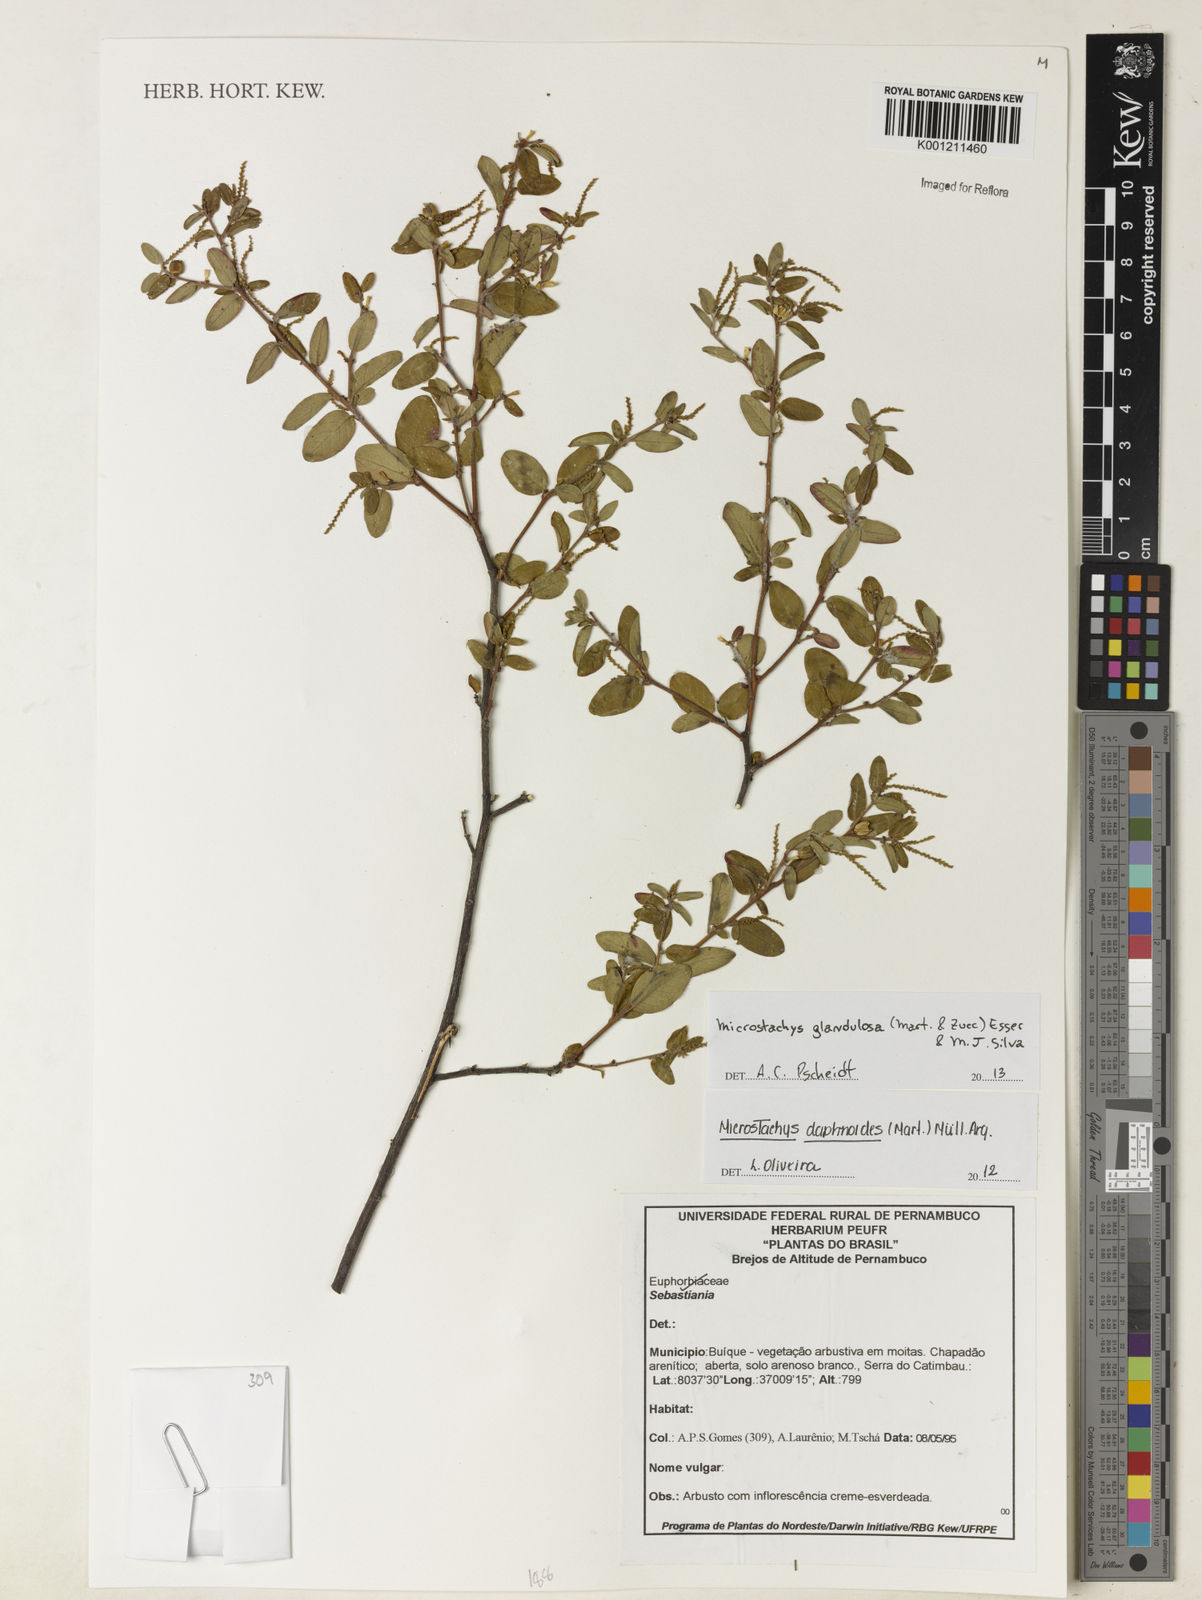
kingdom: Plantae
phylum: Tracheophyta
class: Magnoliopsida
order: Malpighiales
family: Euphorbiaceae
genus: Microstachys
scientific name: Microstachys glandulosa
